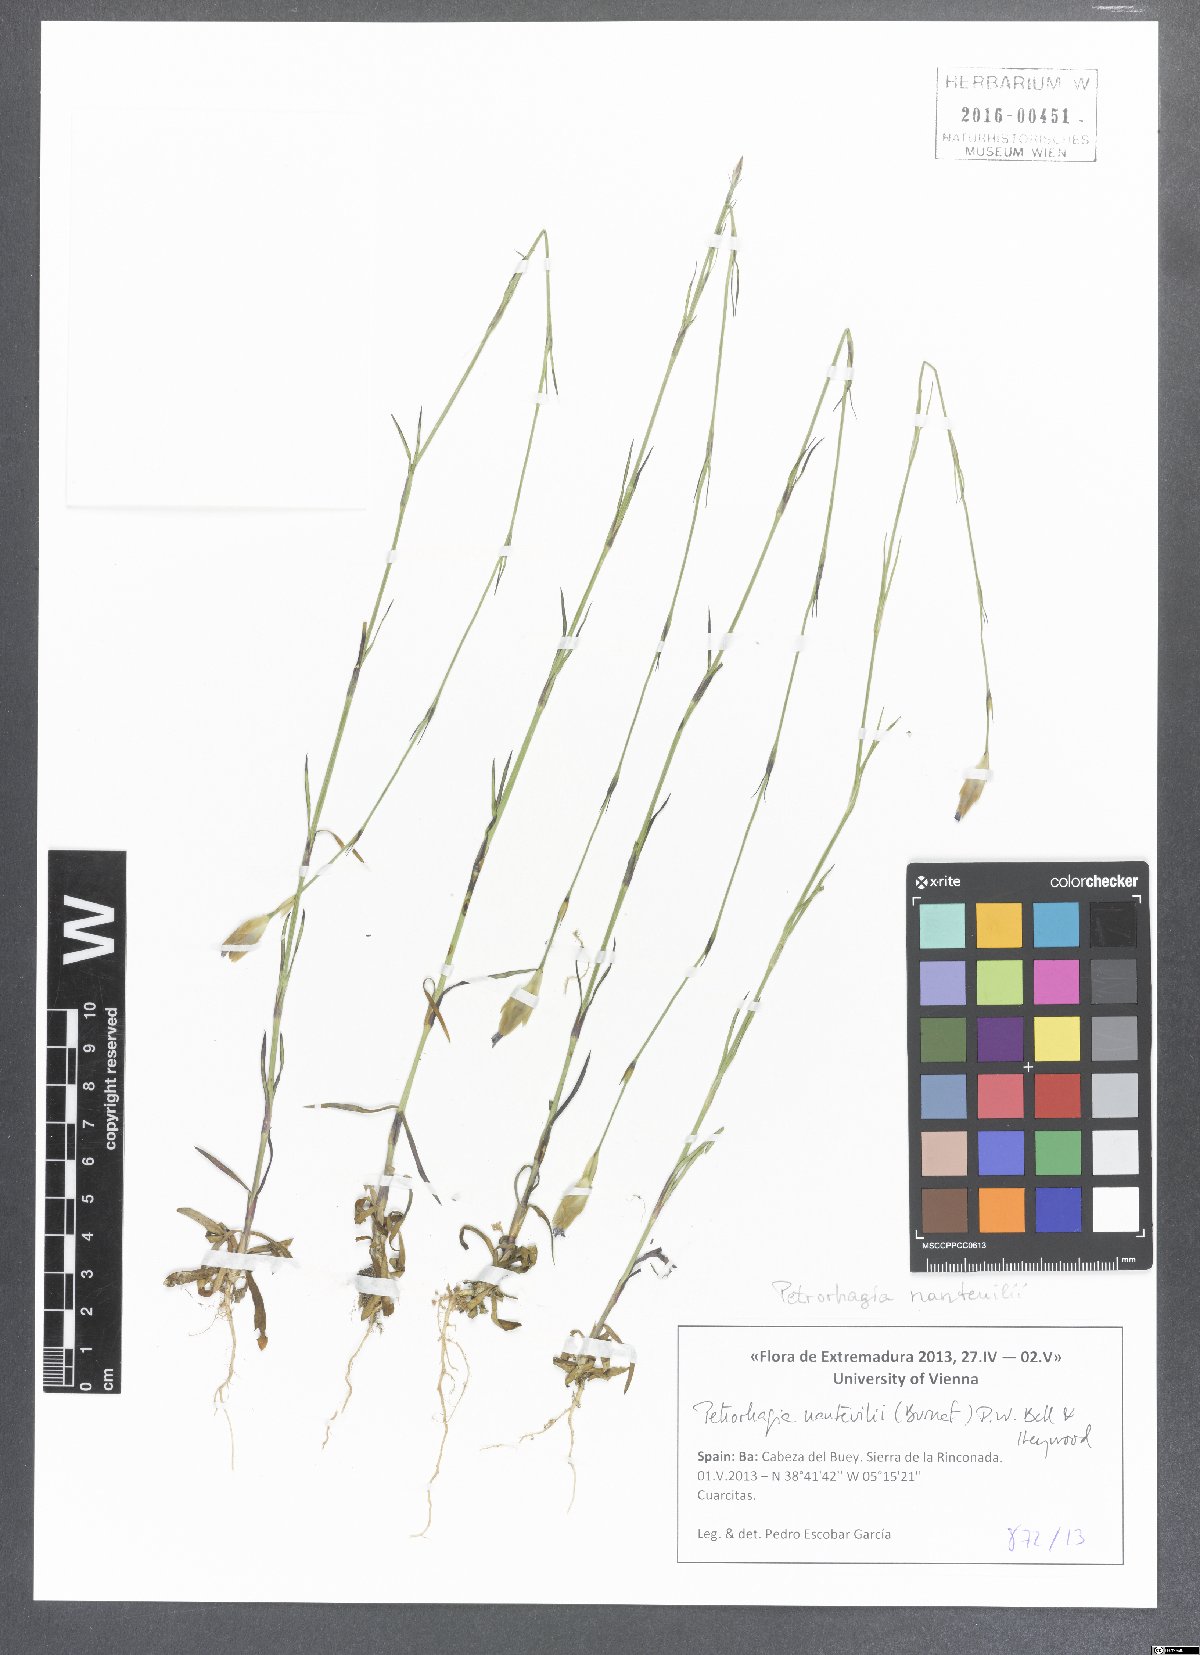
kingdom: Plantae
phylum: Tracheophyta
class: Magnoliopsida
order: Caryophyllales
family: Caryophyllaceae
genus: Petrorhagia
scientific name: Petrorhagia nanteuilii
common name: Proliferous pink
